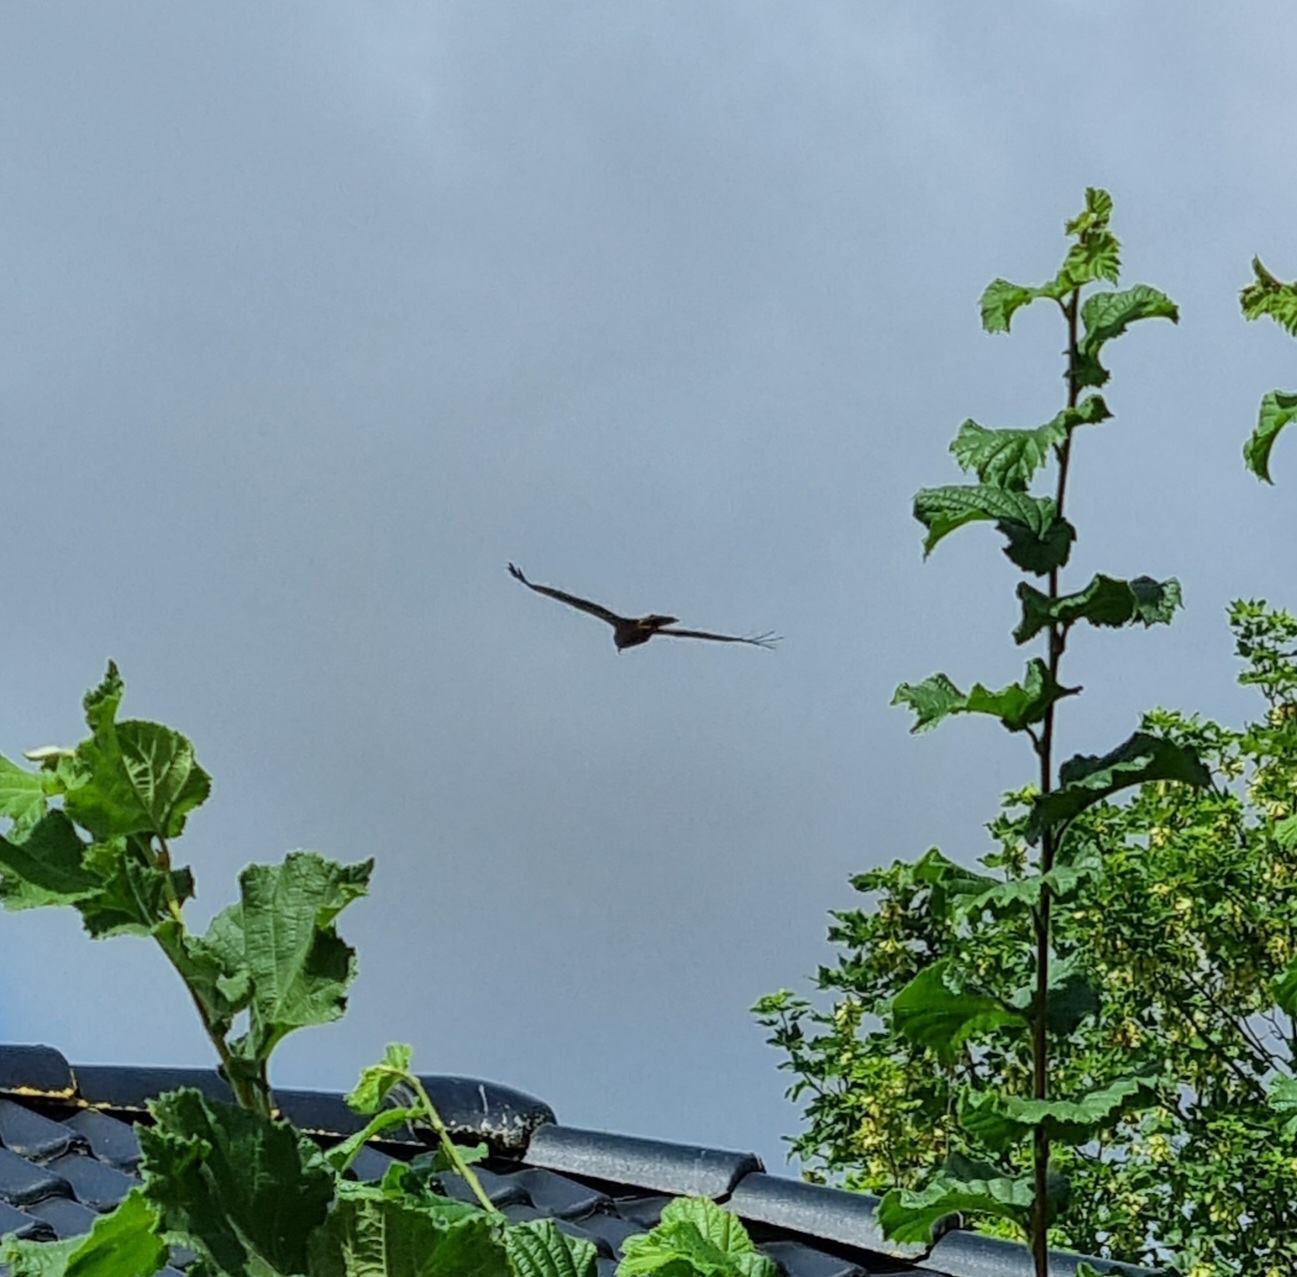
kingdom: Animalia
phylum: Chordata
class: Aves
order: Accipitriformes
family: Accipitridae
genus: Circus
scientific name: Circus aeruginosus
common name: Rørhøg
